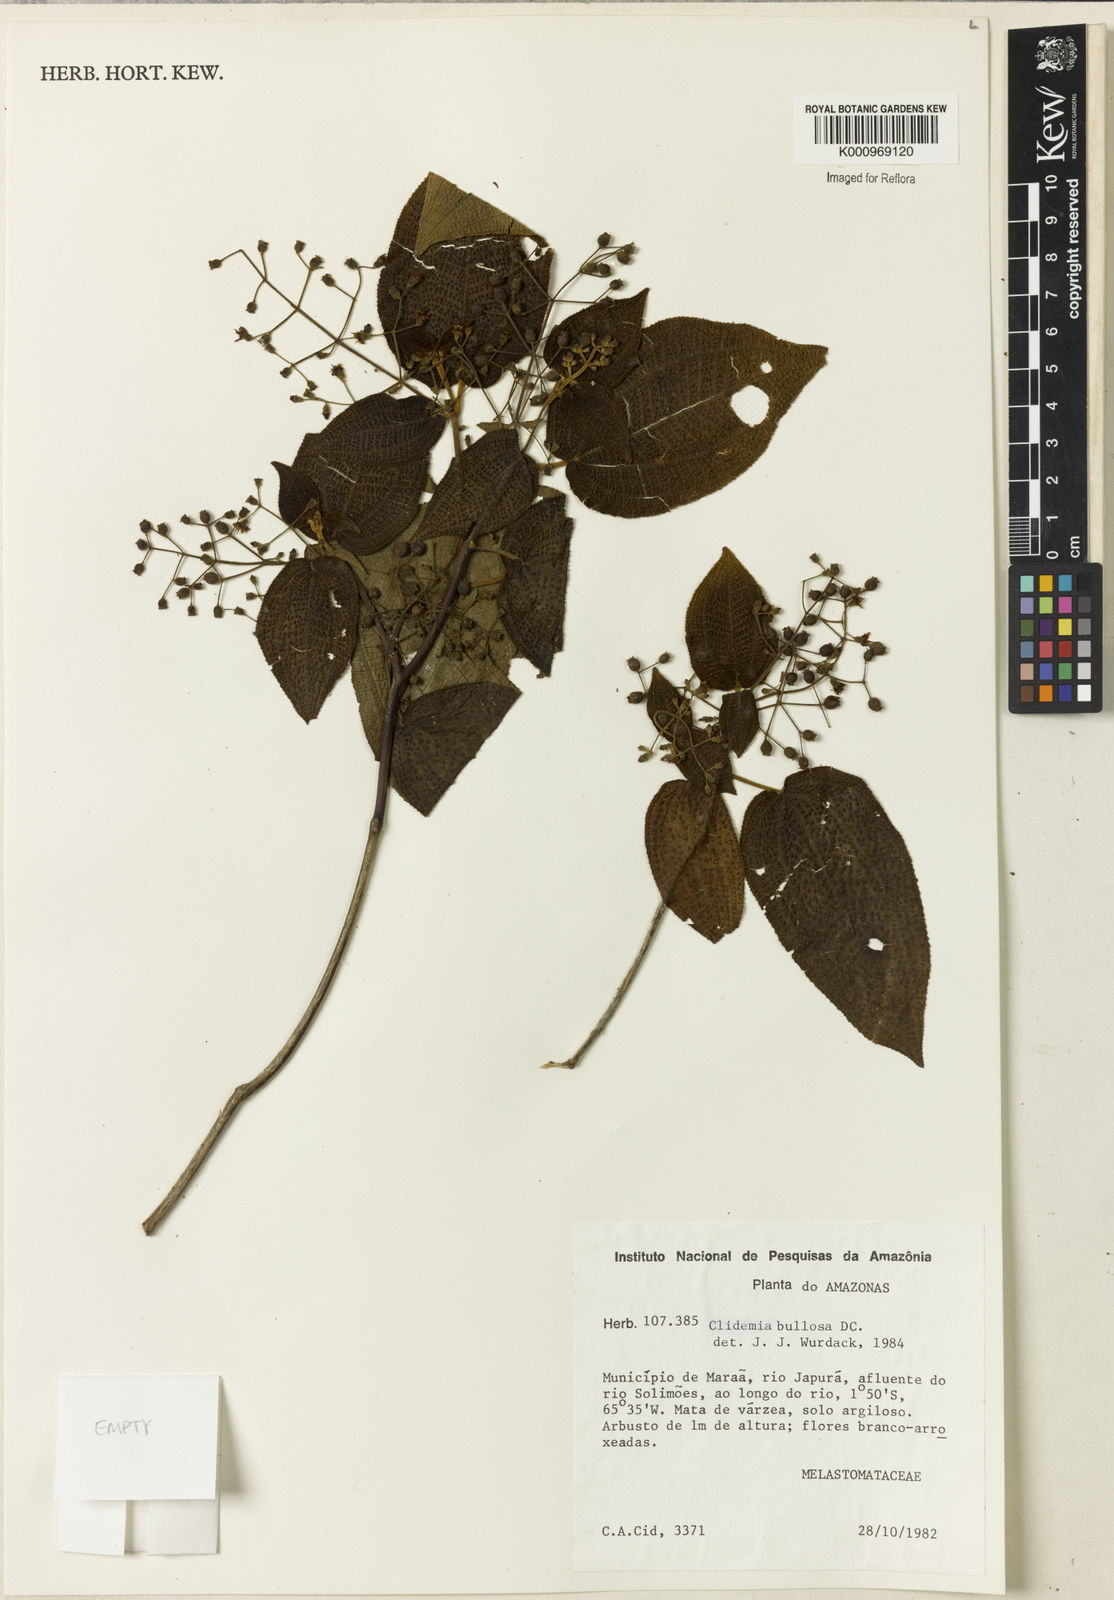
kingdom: Plantae
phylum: Tracheophyta
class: Magnoliopsida
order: Myrtales
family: Melastomataceae
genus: Miconia
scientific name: Miconia biserrata
